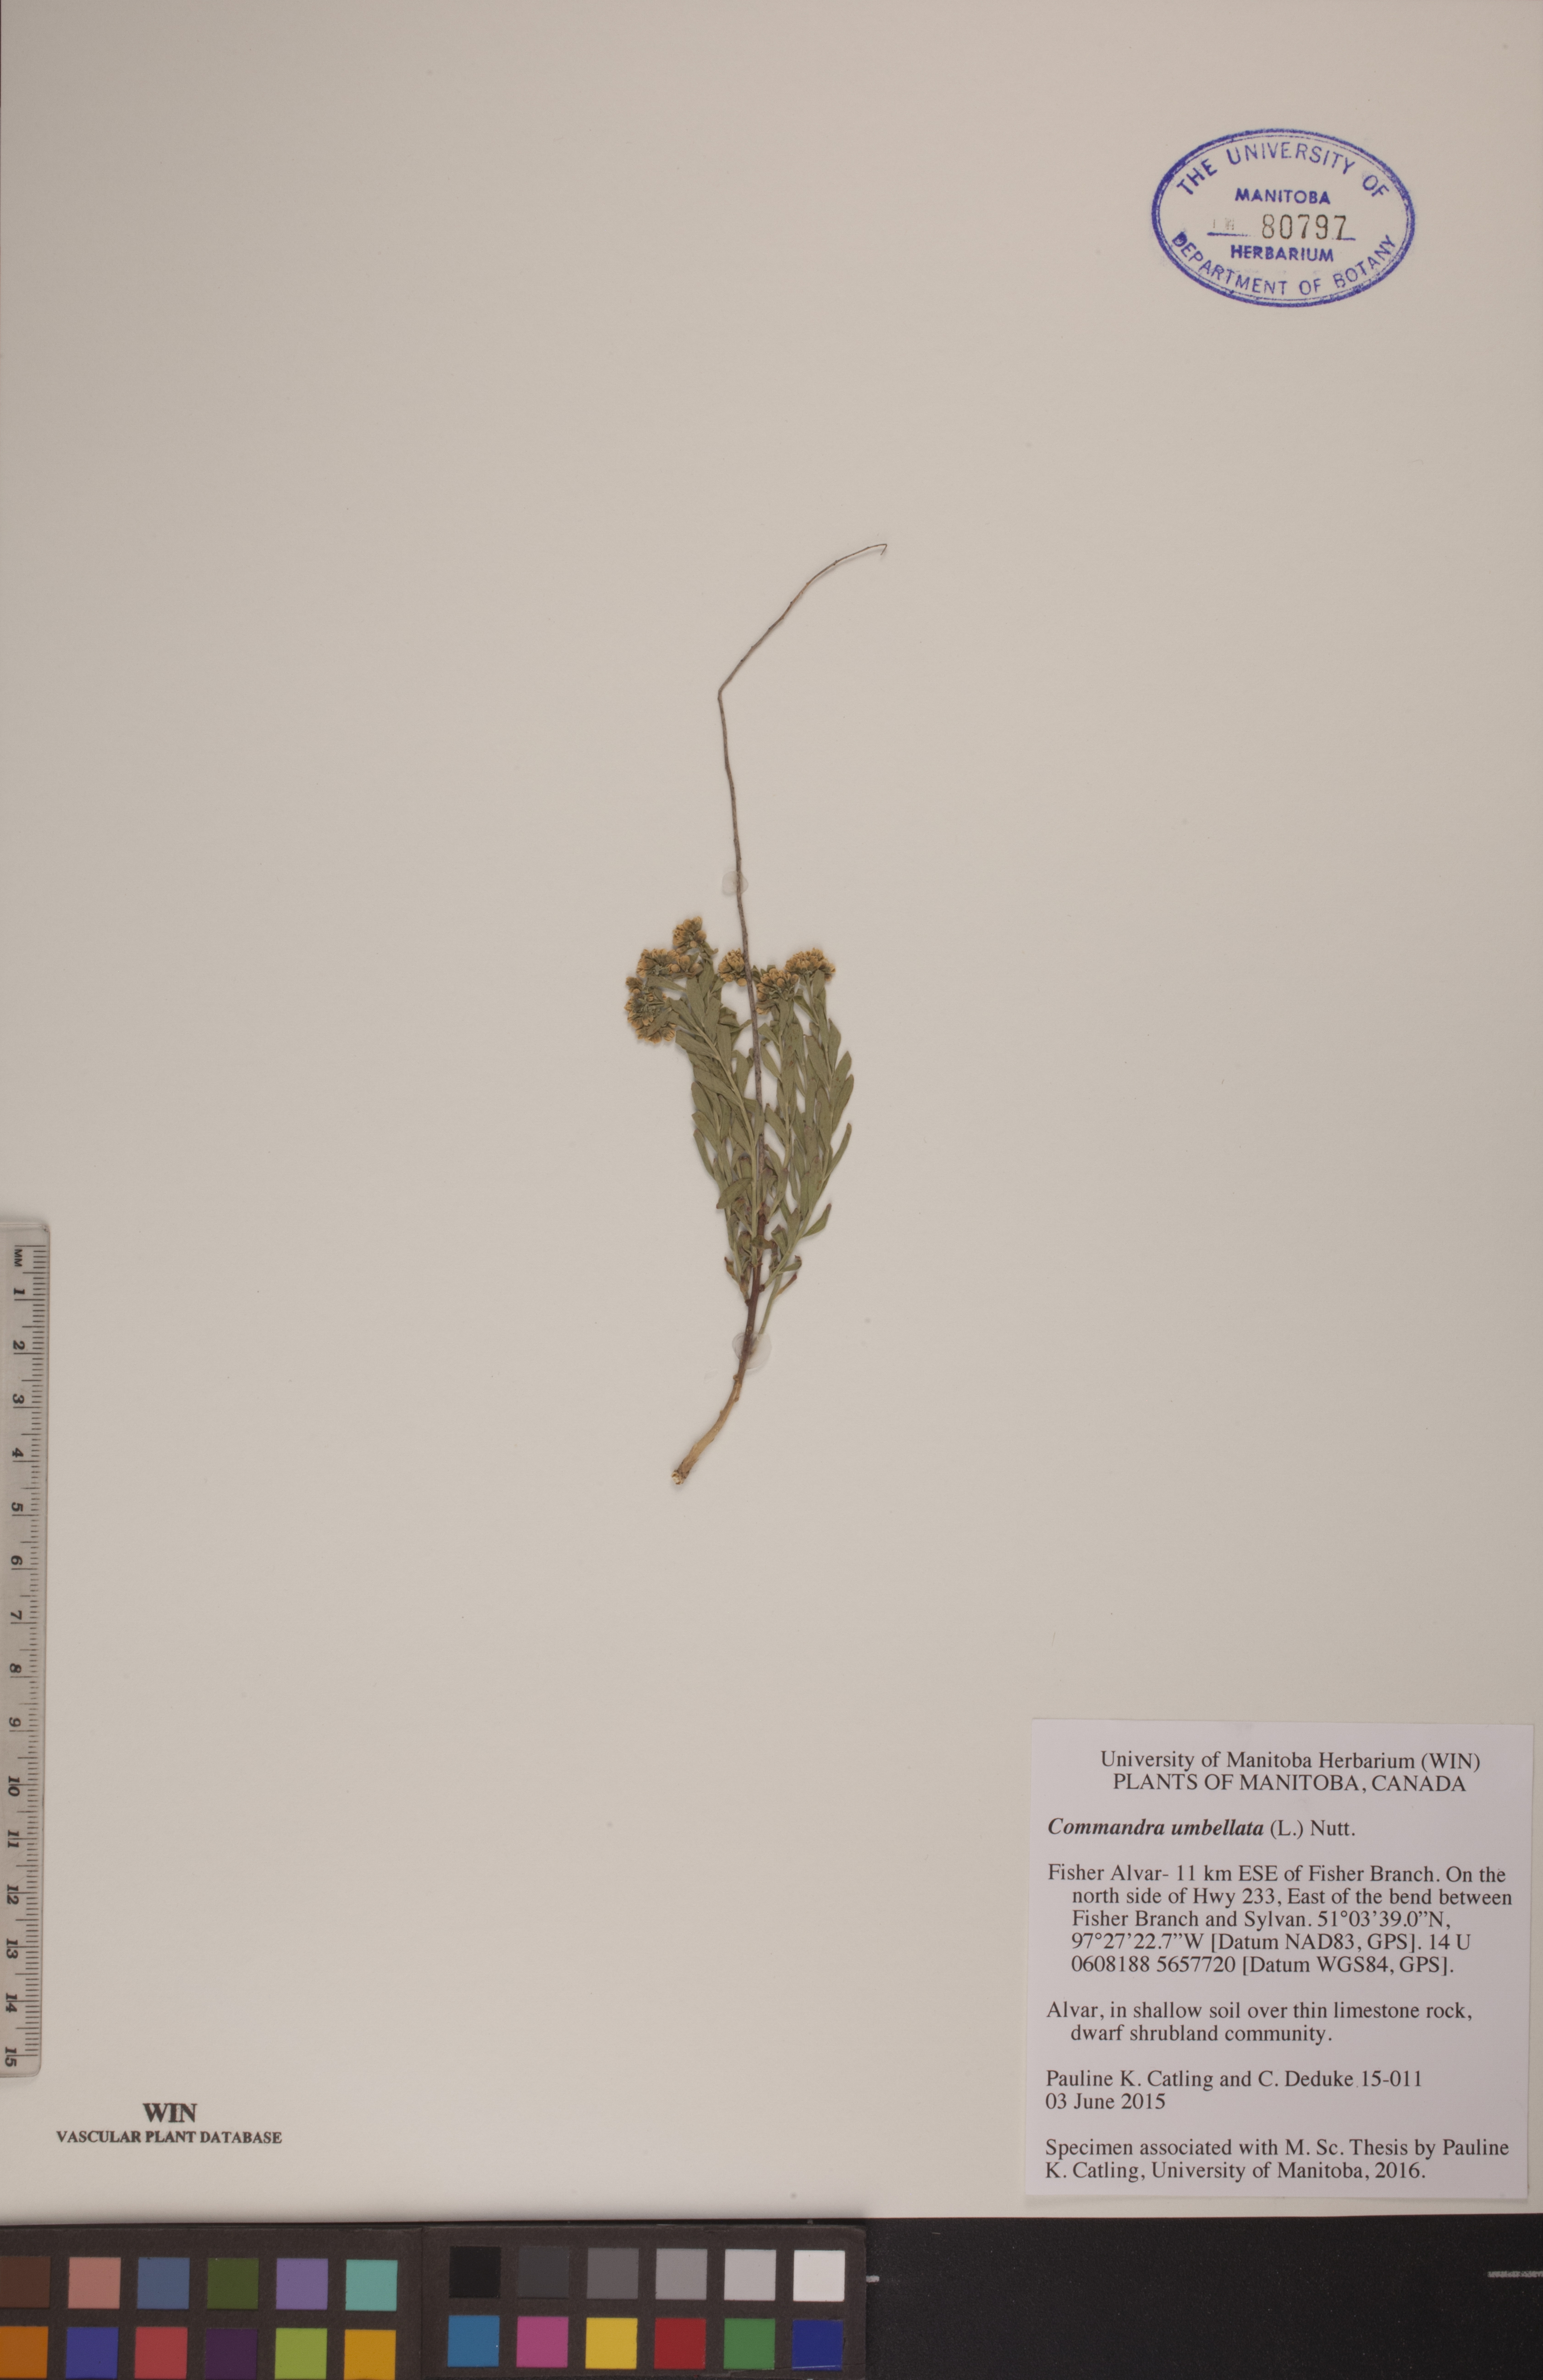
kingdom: Plantae
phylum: Tracheophyta
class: Magnoliopsida
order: Santalales
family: Comandraceae
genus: Comandra
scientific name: Comandra umbellata
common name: Bastard toadflax
